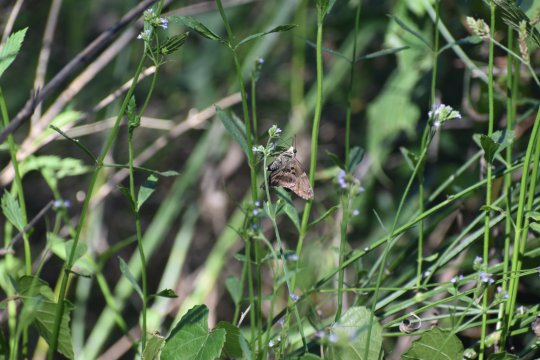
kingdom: Animalia
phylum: Arthropoda
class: Insecta
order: Lepidoptera
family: Hesperiidae
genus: Urbanus
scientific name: Urbanus proteus
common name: Long-tailed Skipper
